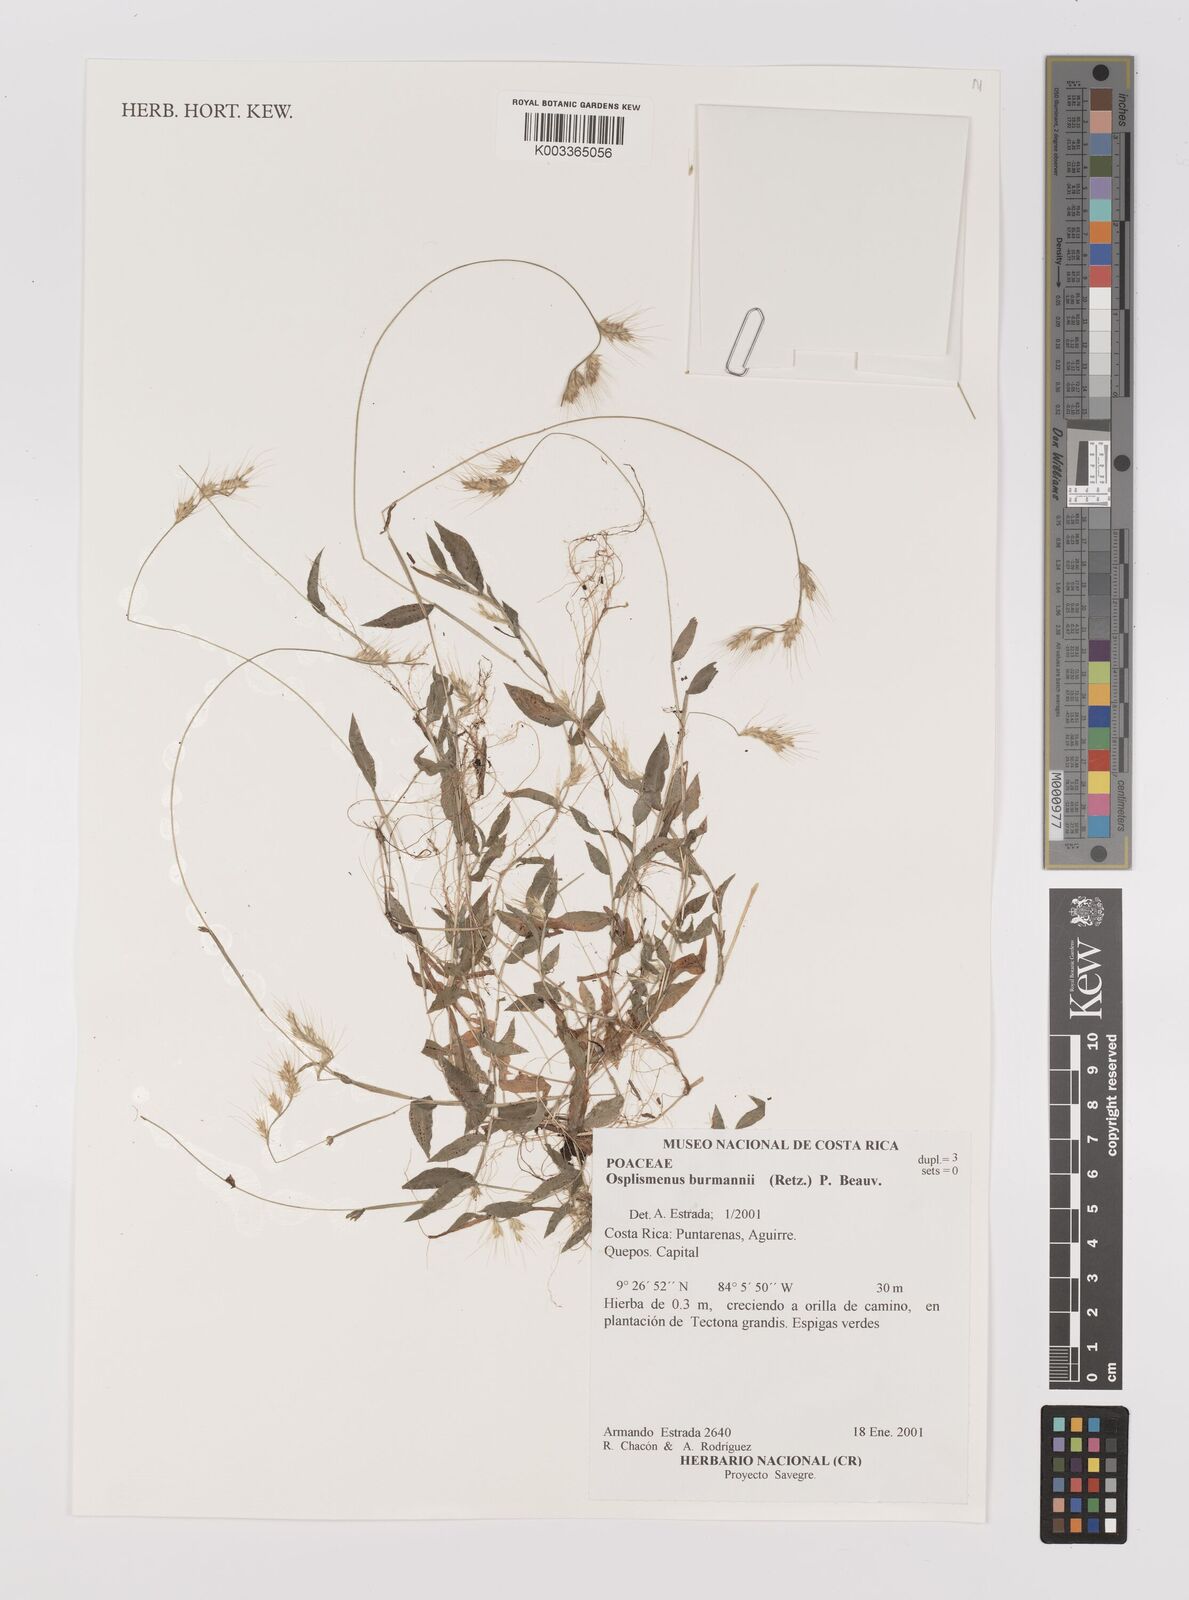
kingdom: Plantae
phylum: Tracheophyta
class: Liliopsida
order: Poales
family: Poaceae
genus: Oplismenus
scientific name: Oplismenus burmanni
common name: Burmann's basketgrass
